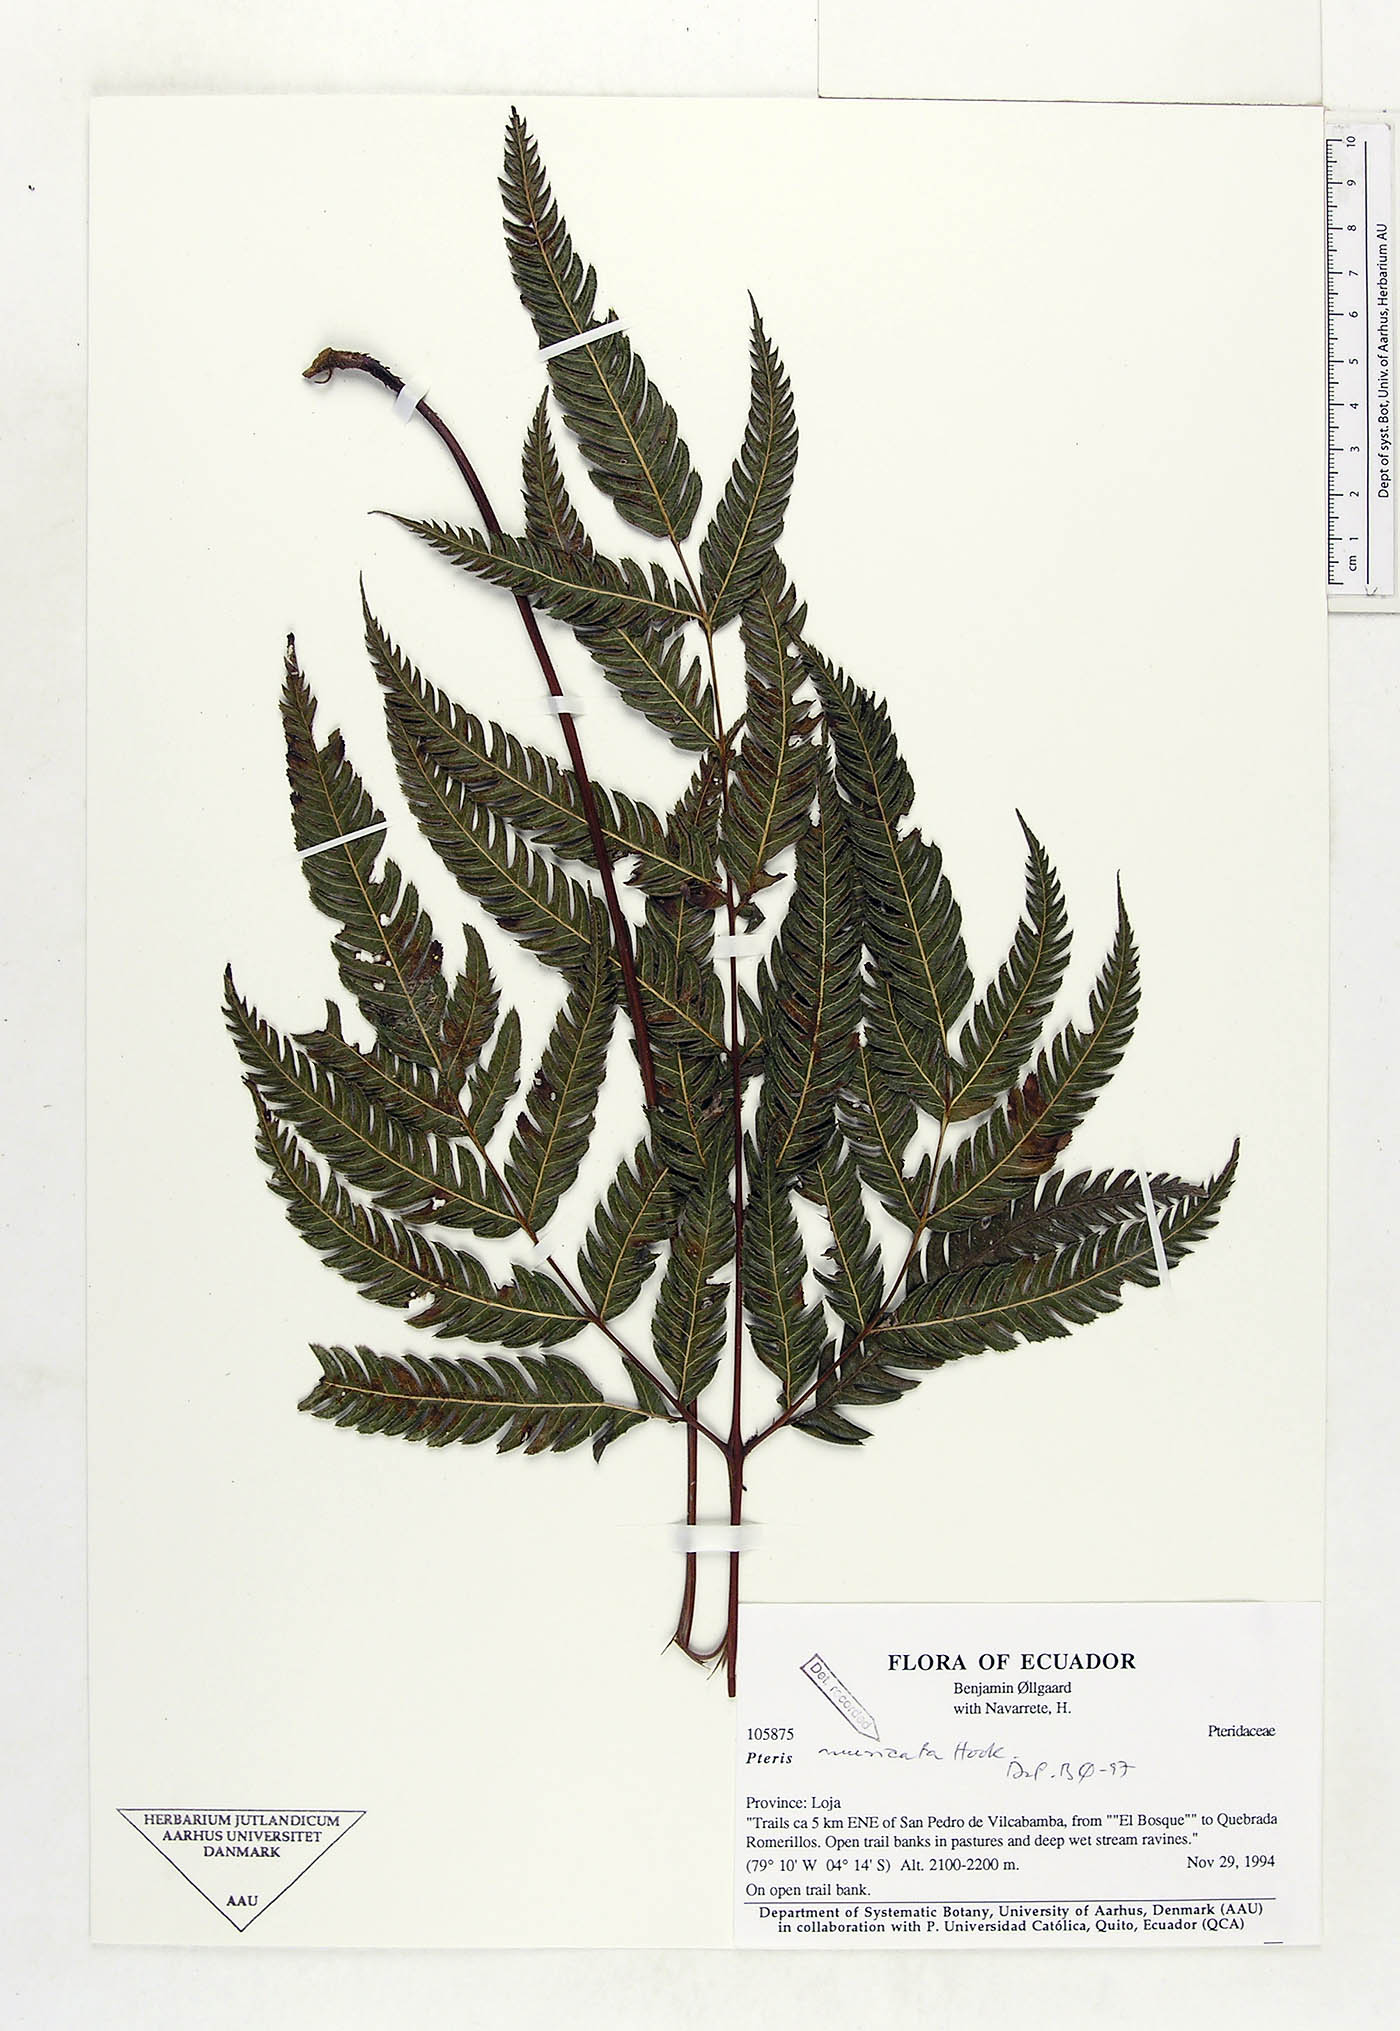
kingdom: Plantae
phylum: Tracheophyta
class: Polypodiopsida
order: Polypodiales
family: Pteridaceae
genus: Pteris
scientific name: Pteris muricata
